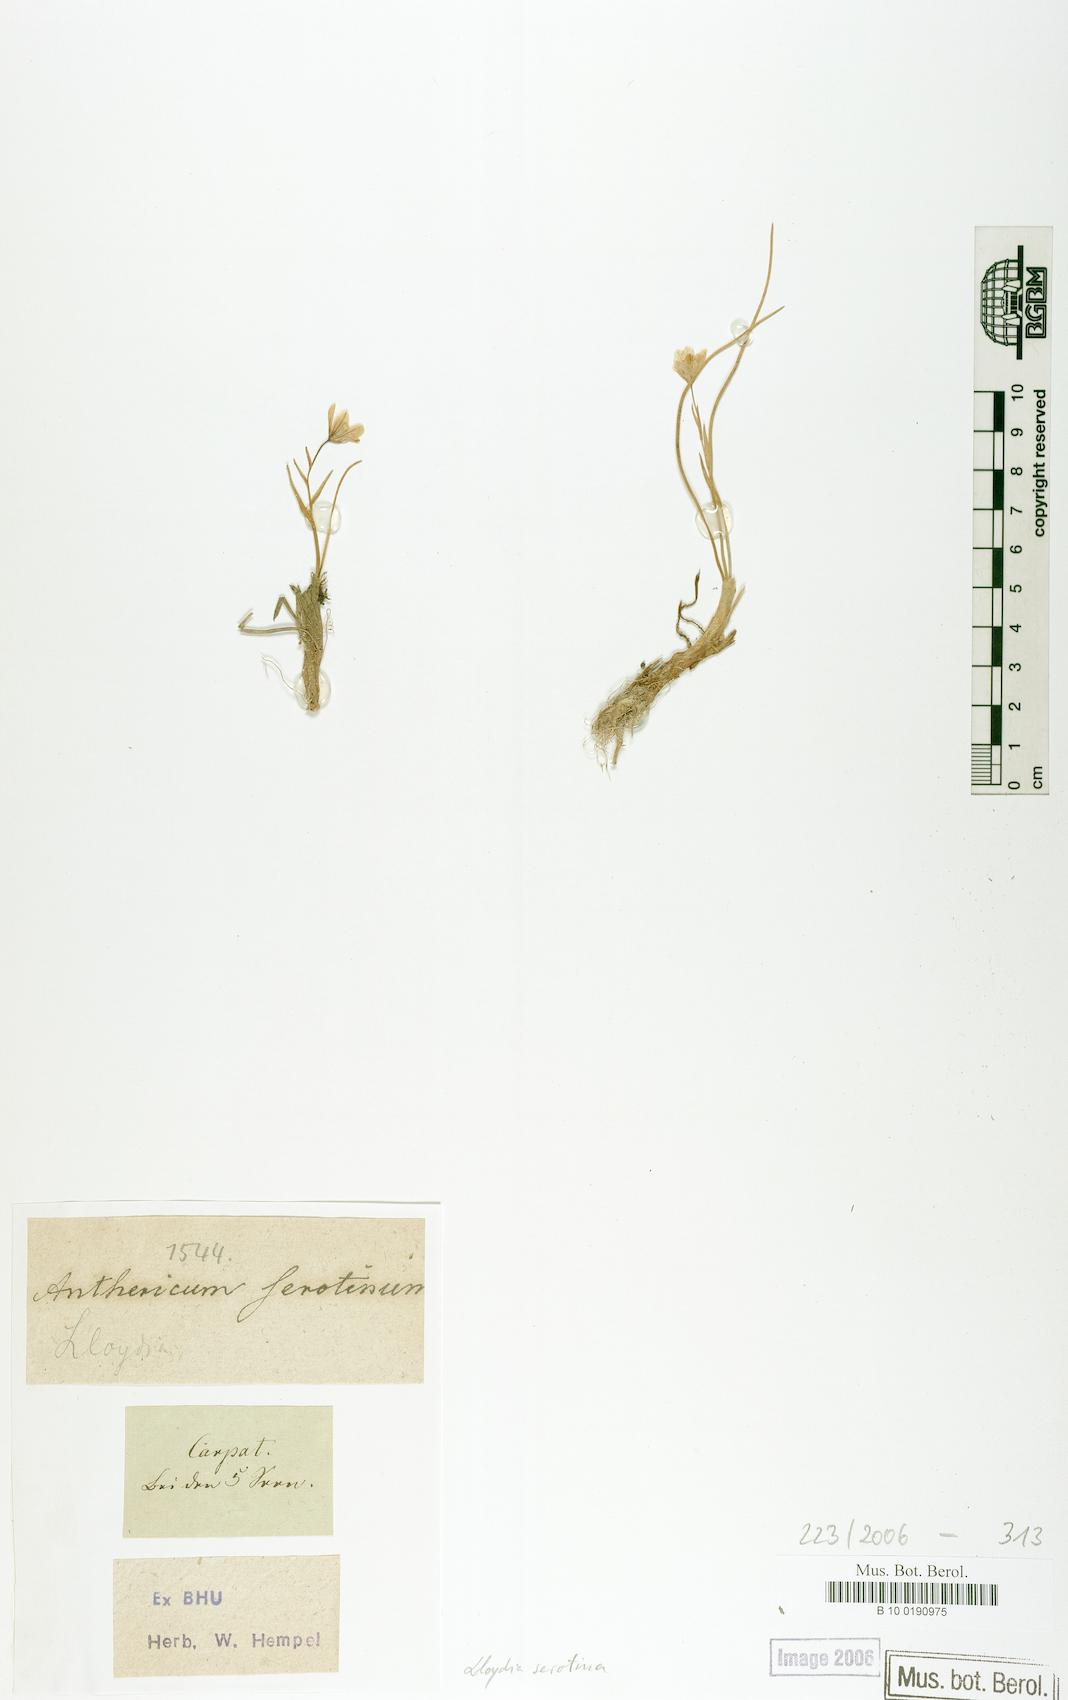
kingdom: Plantae
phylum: Tracheophyta
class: Liliopsida
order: Liliales
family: Liliaceae
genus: Gagea
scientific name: Gagea serotina
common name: Snowdon lily
